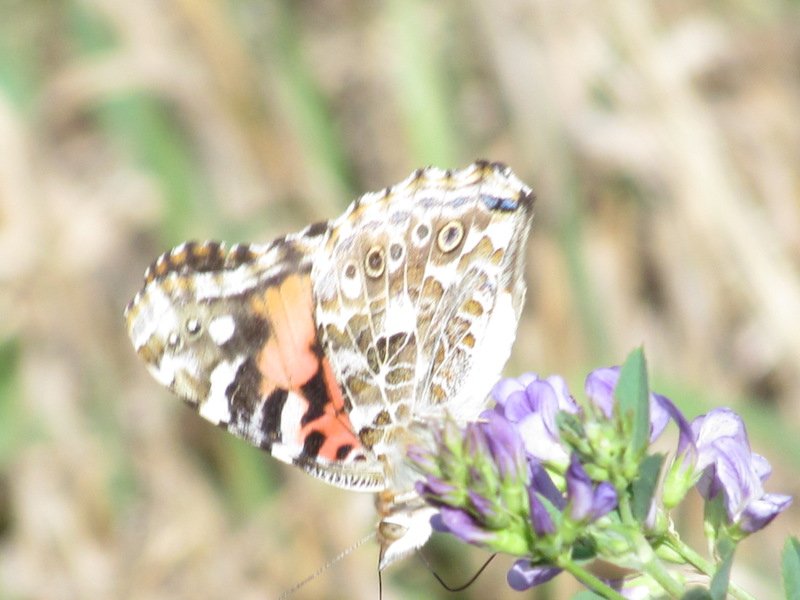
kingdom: Animalia
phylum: Arthropoda
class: Insecta
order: Lepidoptera
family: Nymphalidae
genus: Vanessa
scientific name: Vanessa cardui
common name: Painted Lady
